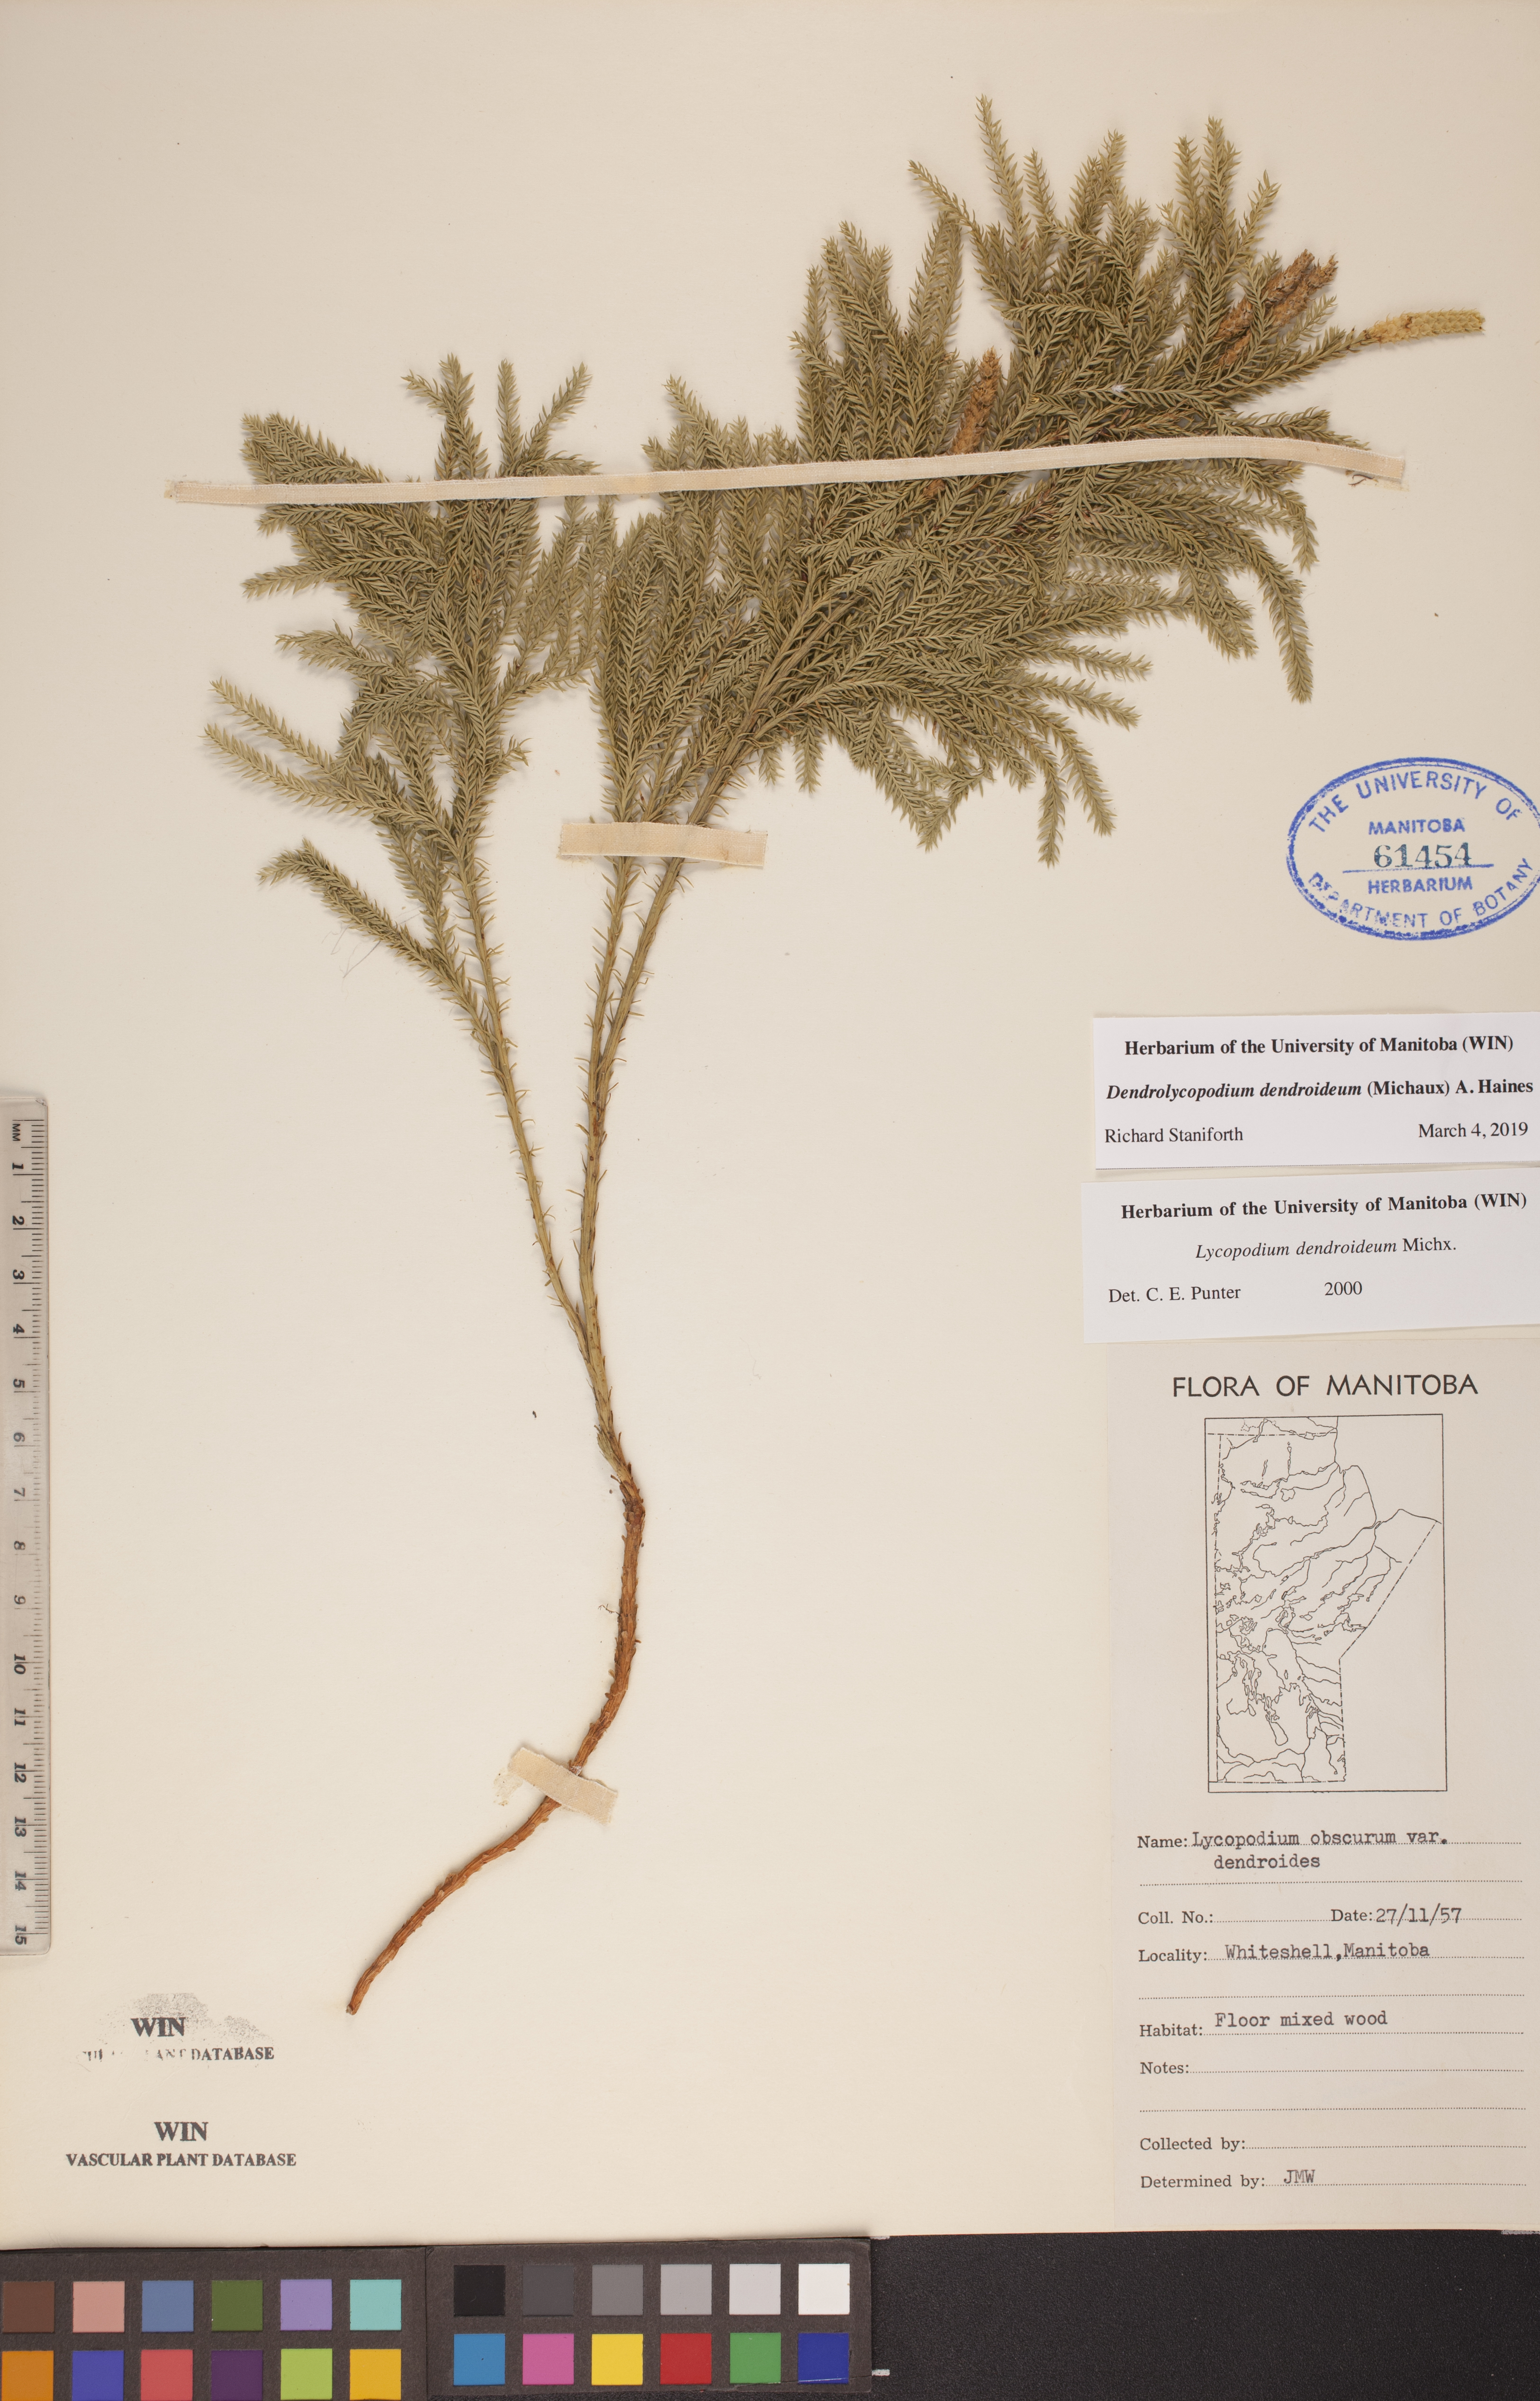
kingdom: Plantae
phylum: Tracheophyta
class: Lycopodiopsida
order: Lycopodiales
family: Lycopodiaceae
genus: Dendrolycopodium
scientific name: Dendrolycopodium dendroideum
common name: Northern tree-clubmoss
